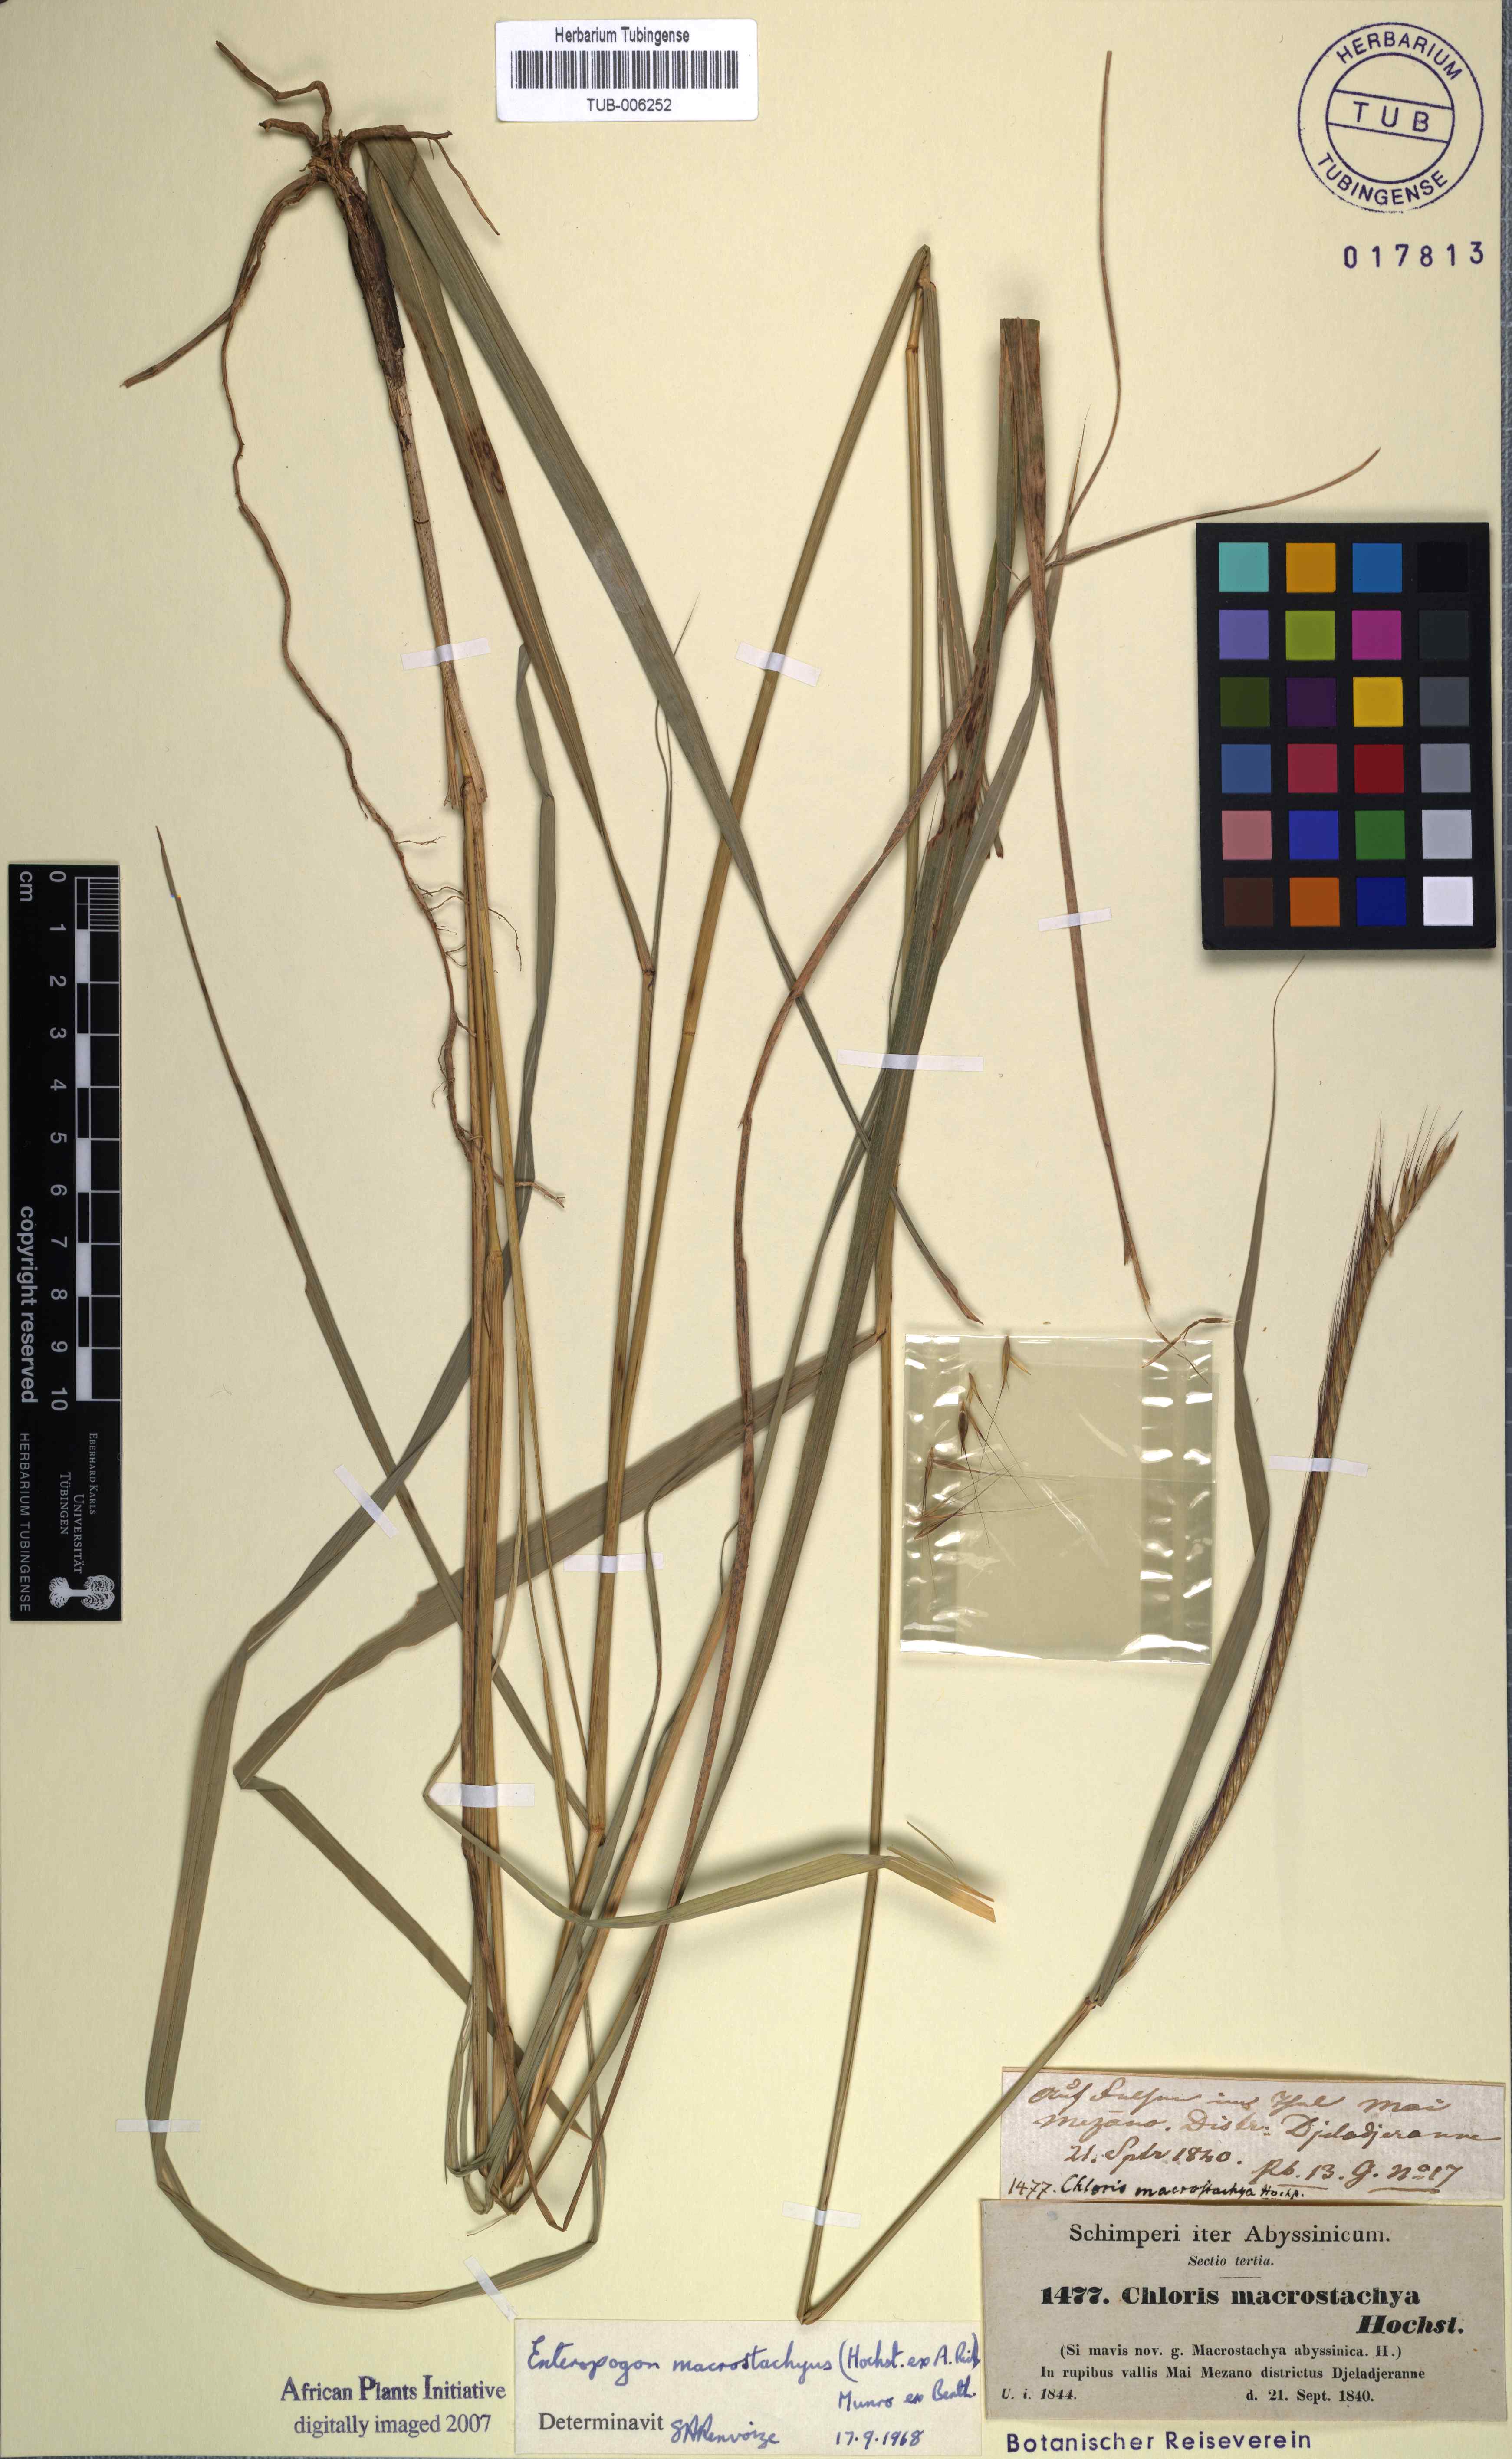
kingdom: Plantae
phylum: Tracheophyta
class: Liliopsida
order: Poales
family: Poaceae
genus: Enteropogon
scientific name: Enteropogon macrostachyus
